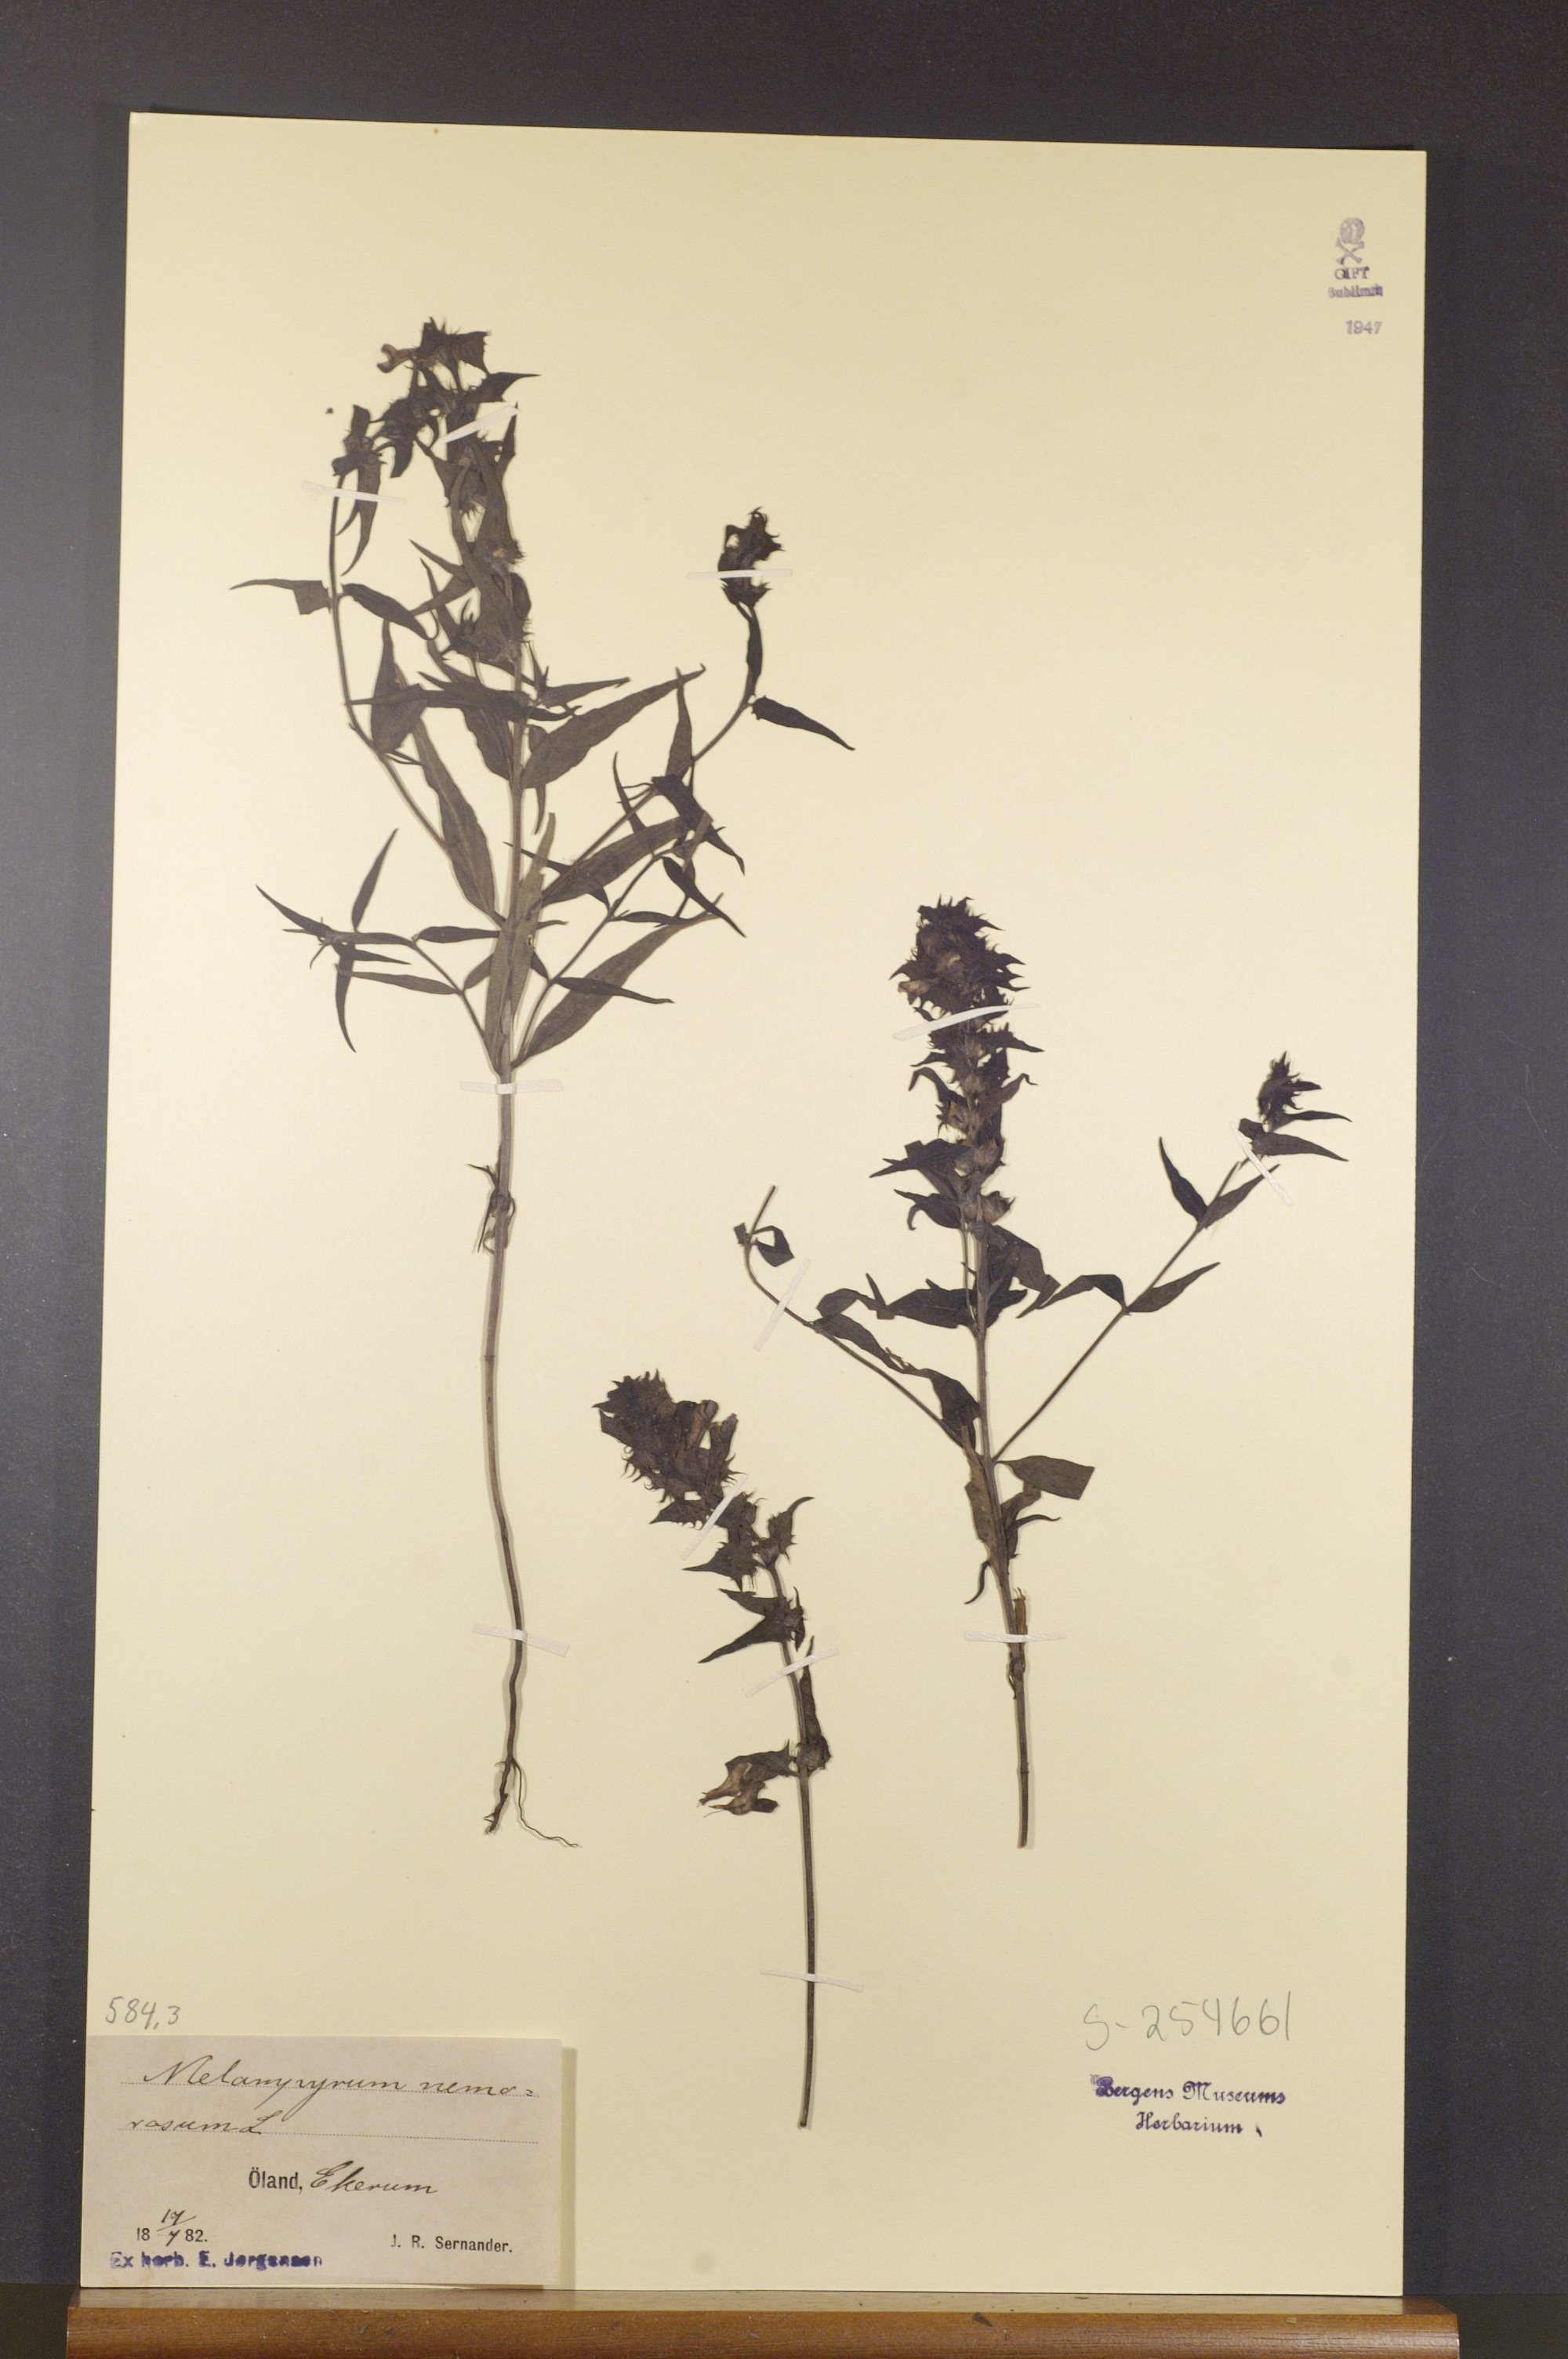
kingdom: Plantae
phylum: Tracheophyta
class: Magnoliopsida
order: Lamiales
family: Orobanchaceae
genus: Melampyrum
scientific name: Melampyrum nemorosum
